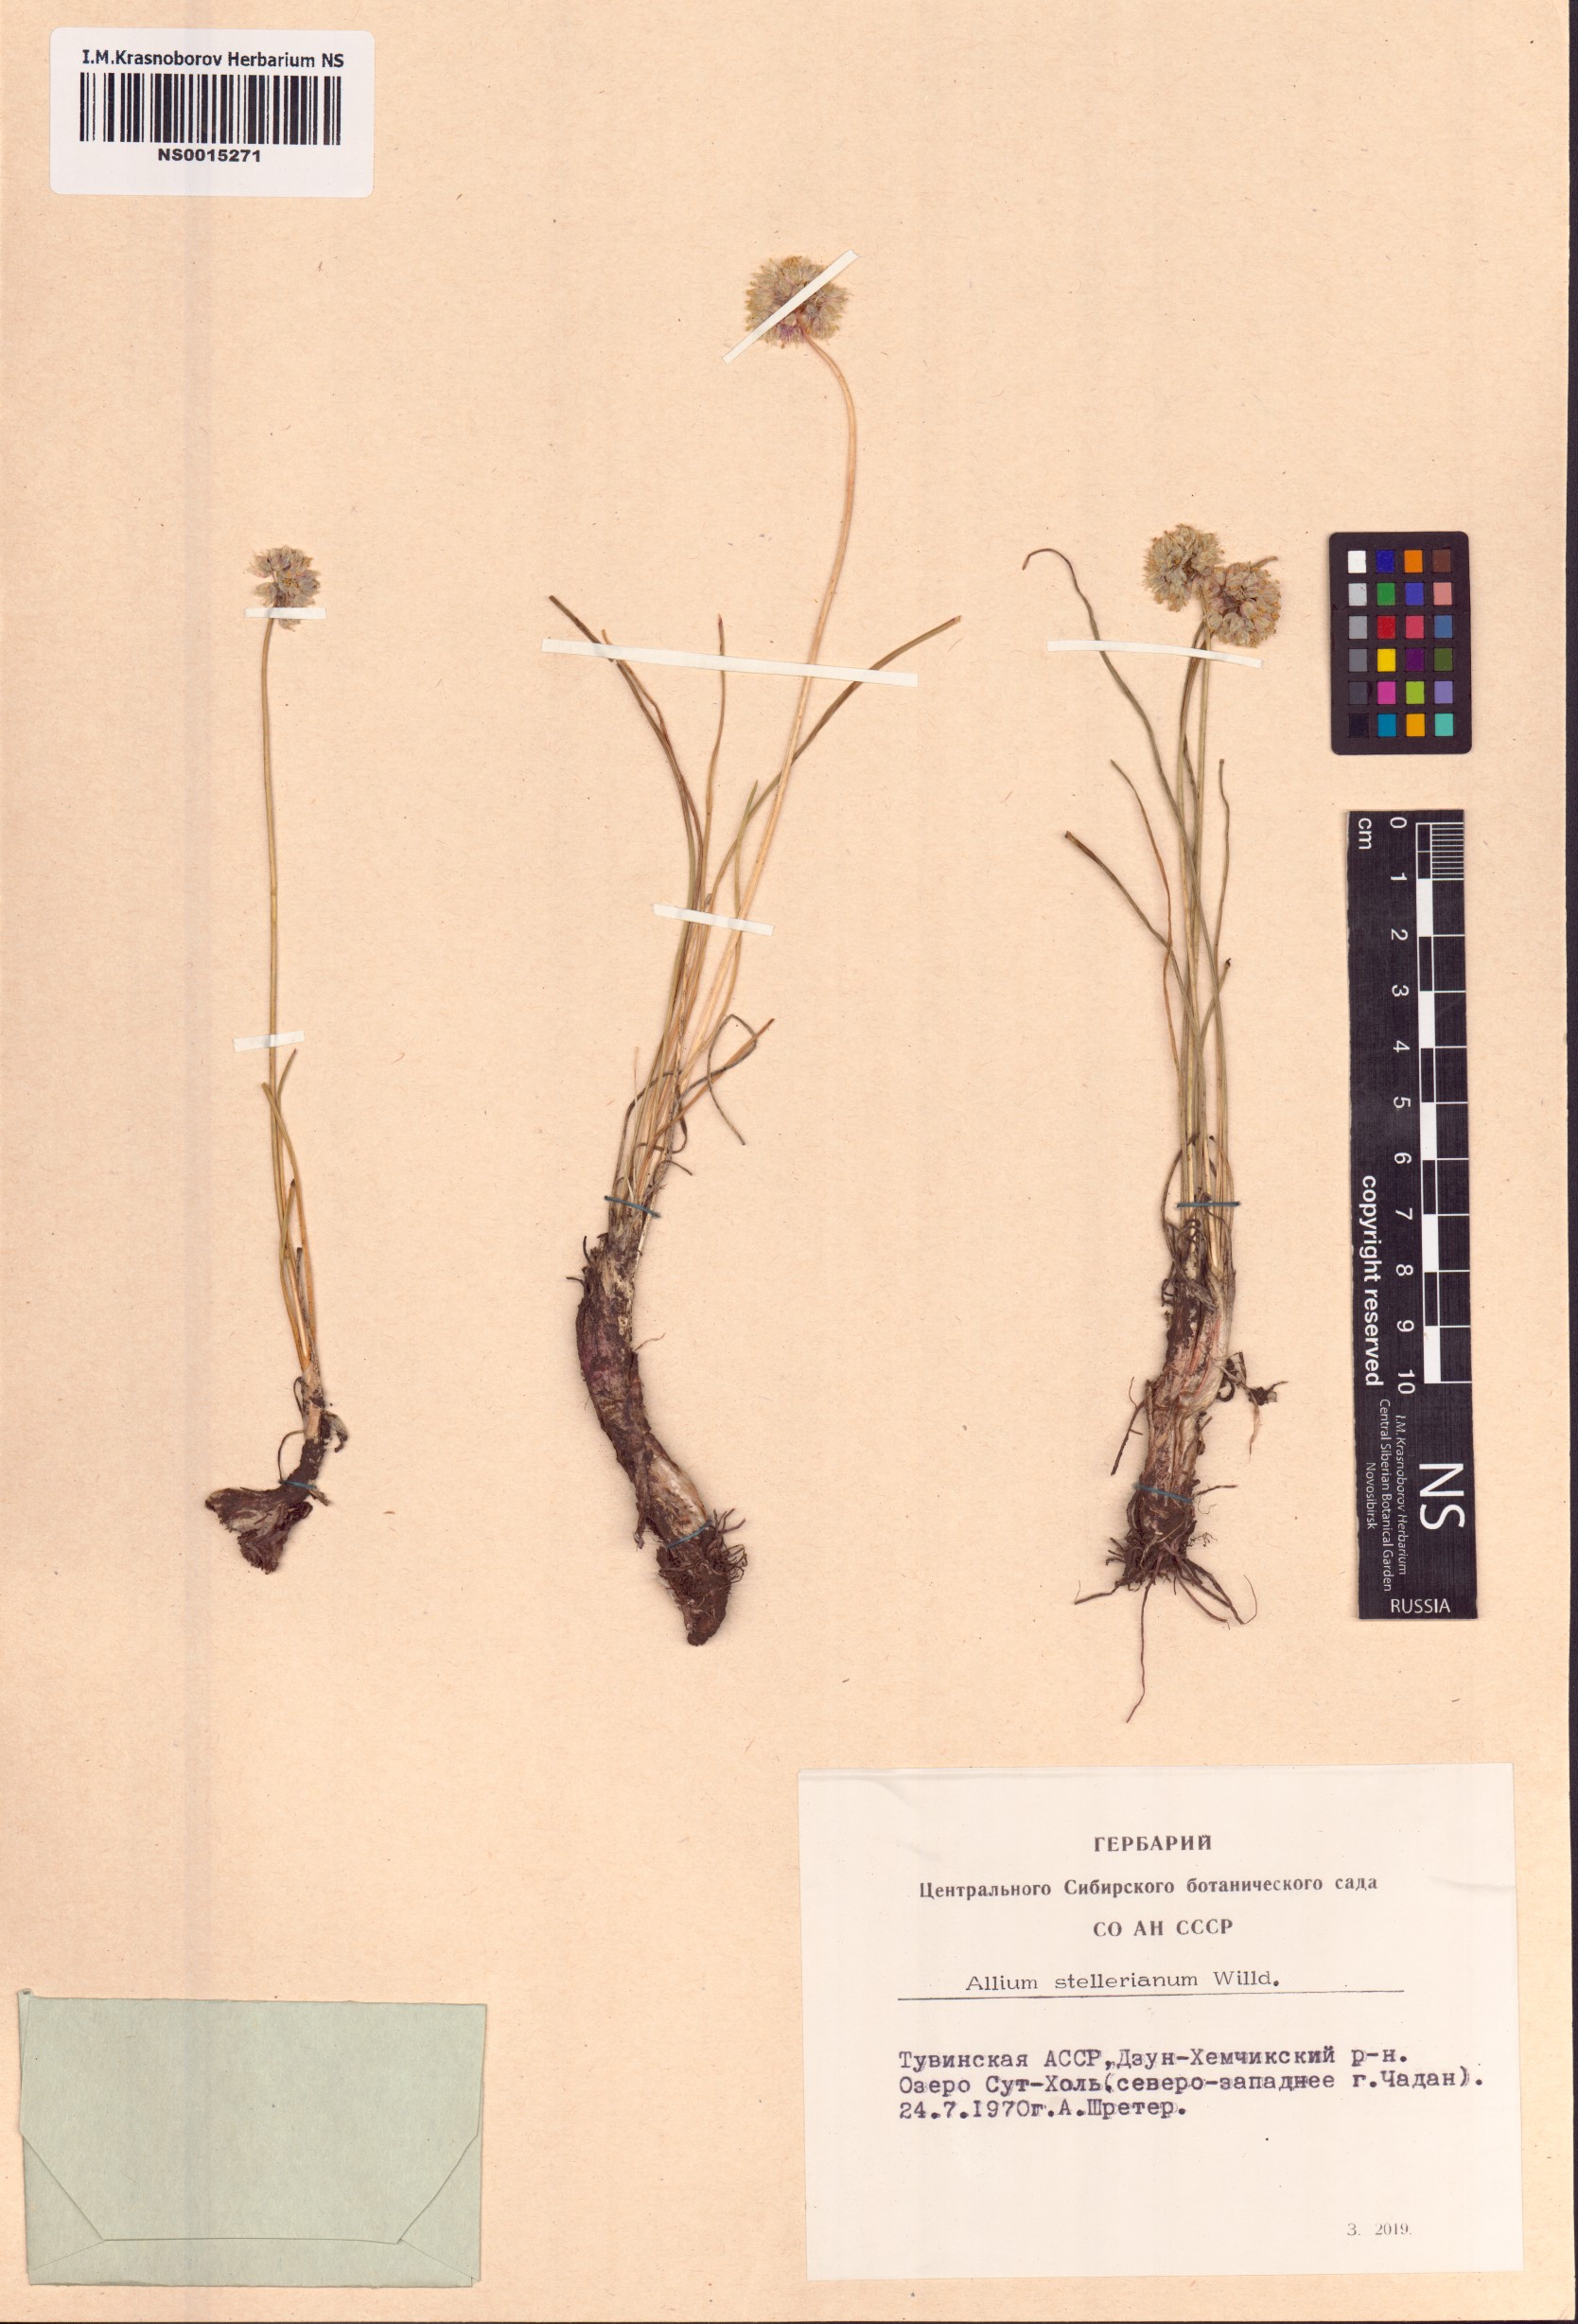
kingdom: Plantae
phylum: Tracheophyta
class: Liliopsida
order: Asparagales
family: Amaryllidaceae
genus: Allium
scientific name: Allium stellerianum
